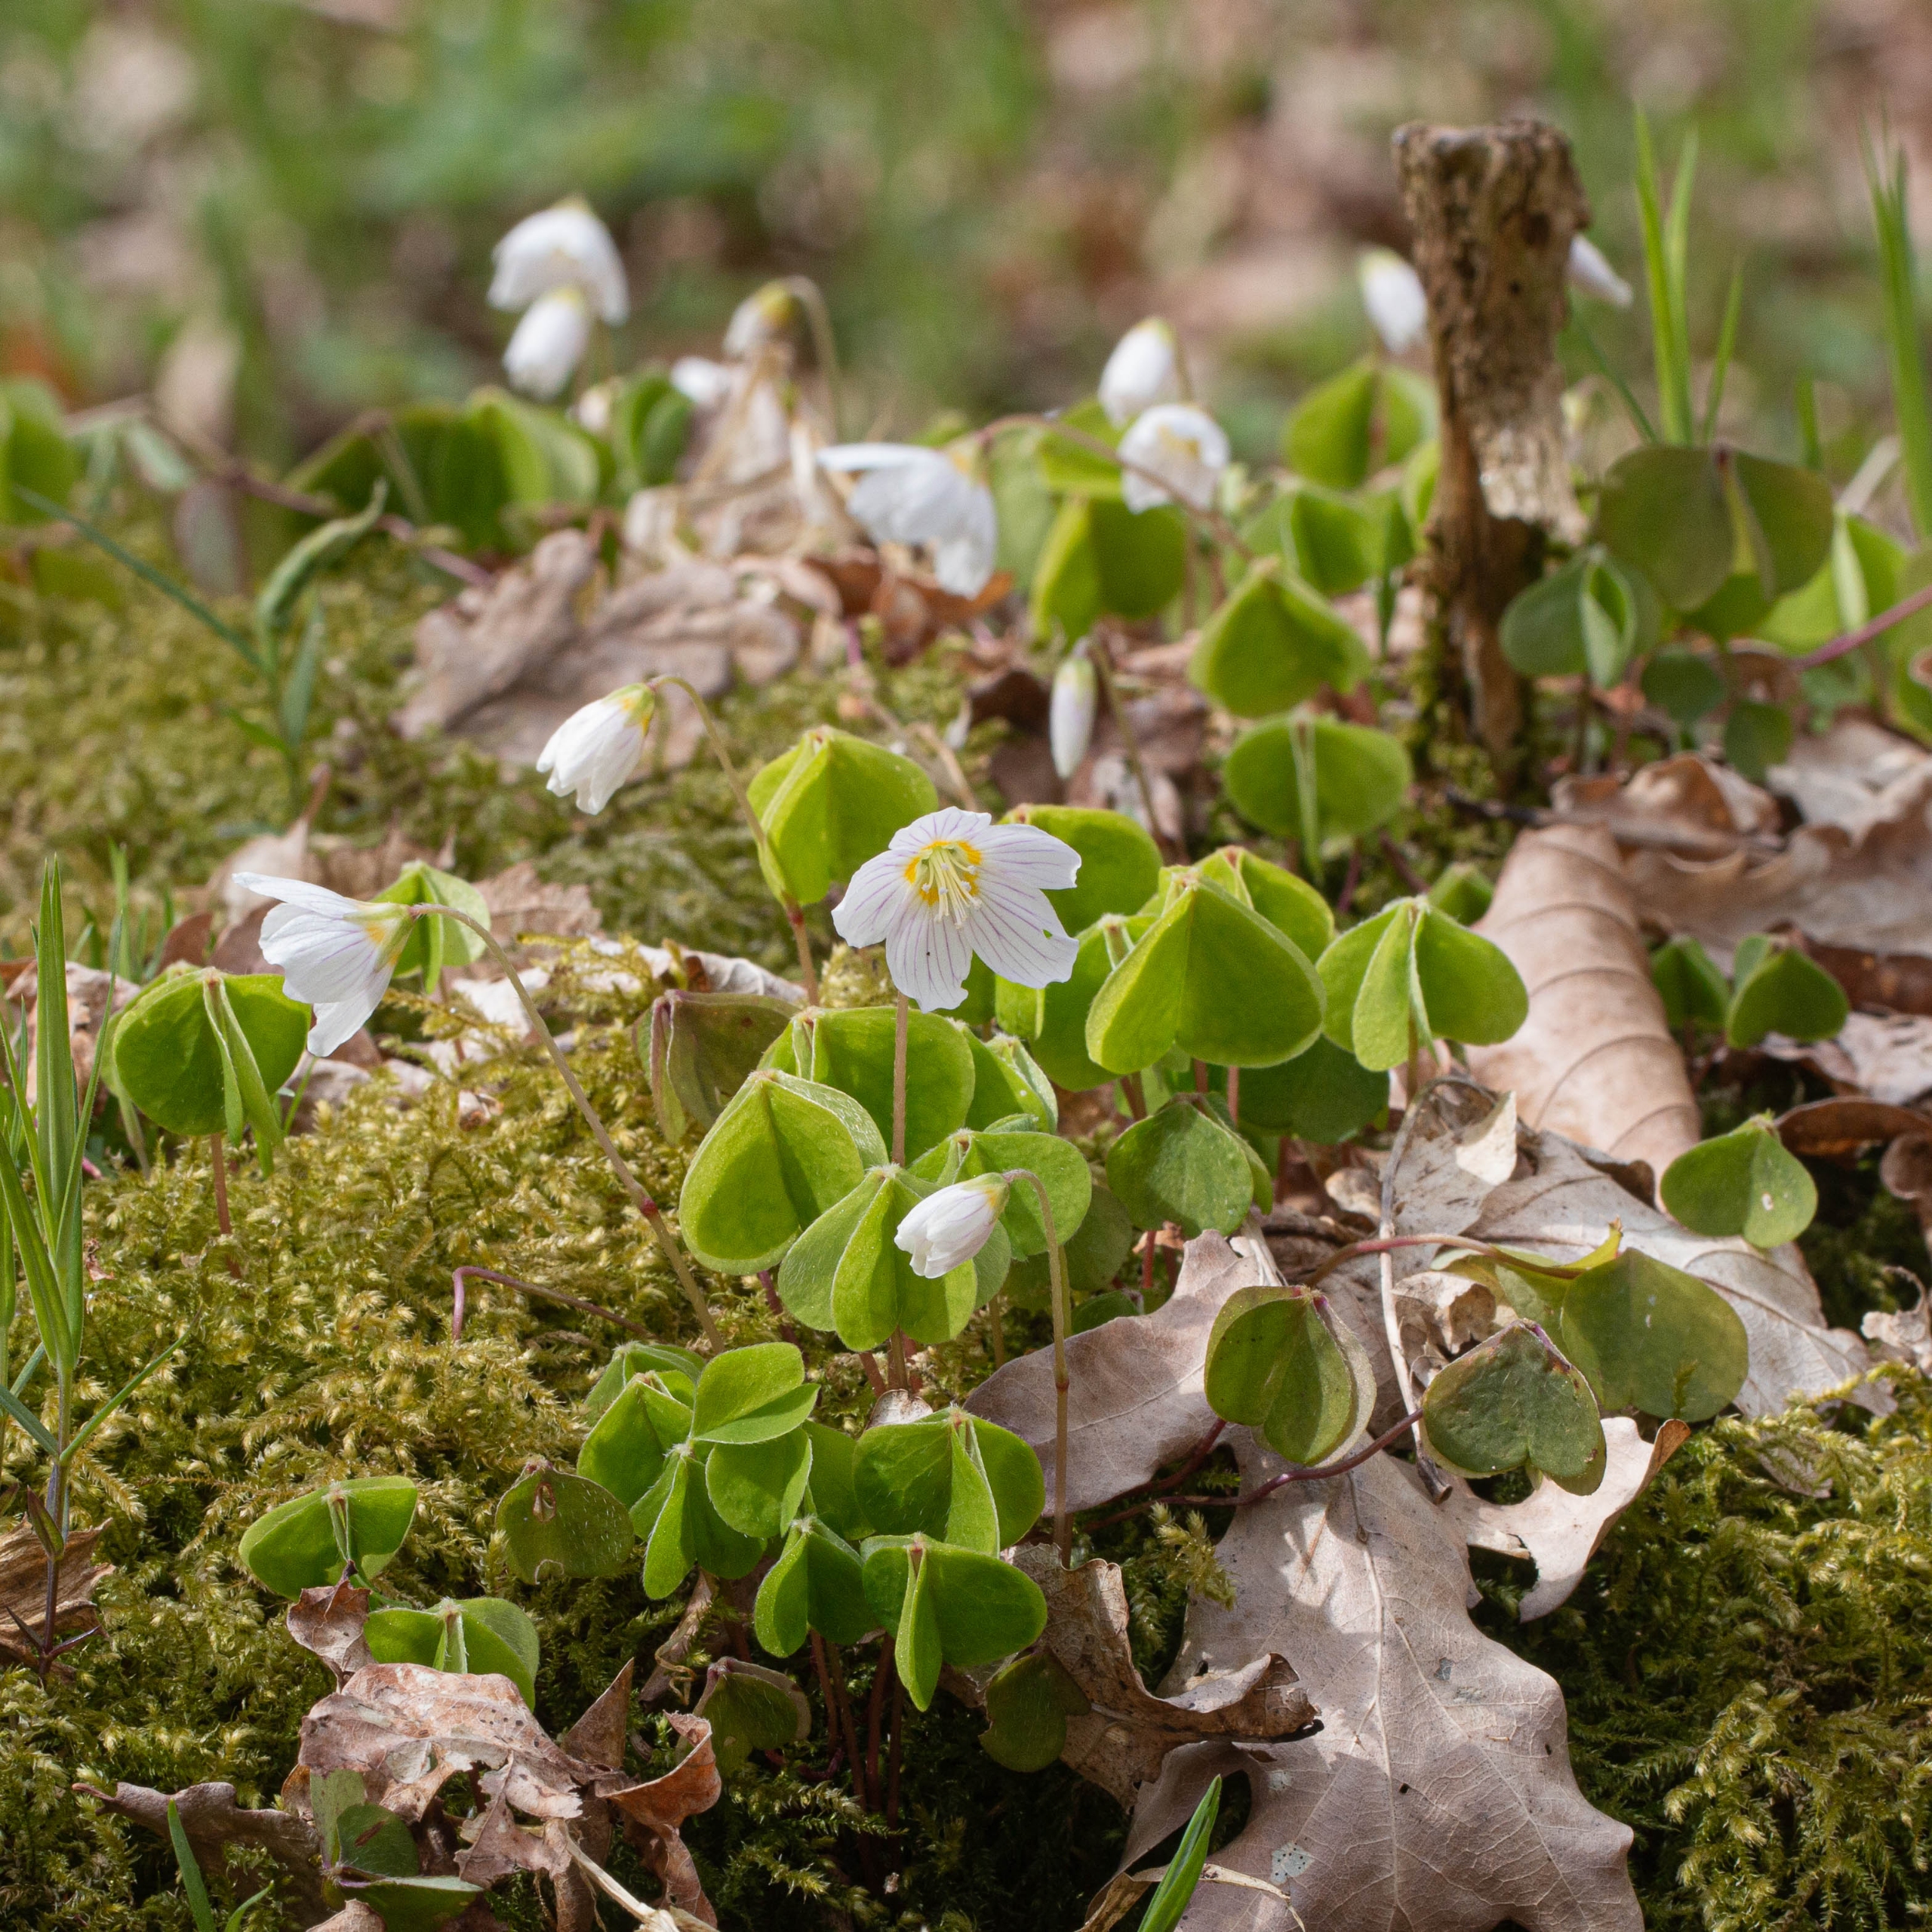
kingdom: Plantae
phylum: Tracheophyta
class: Magnoliopsida
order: Oxalidales
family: Oxalidaceae
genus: Oxalis
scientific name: Oxalis acetosella
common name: Skovsyre
